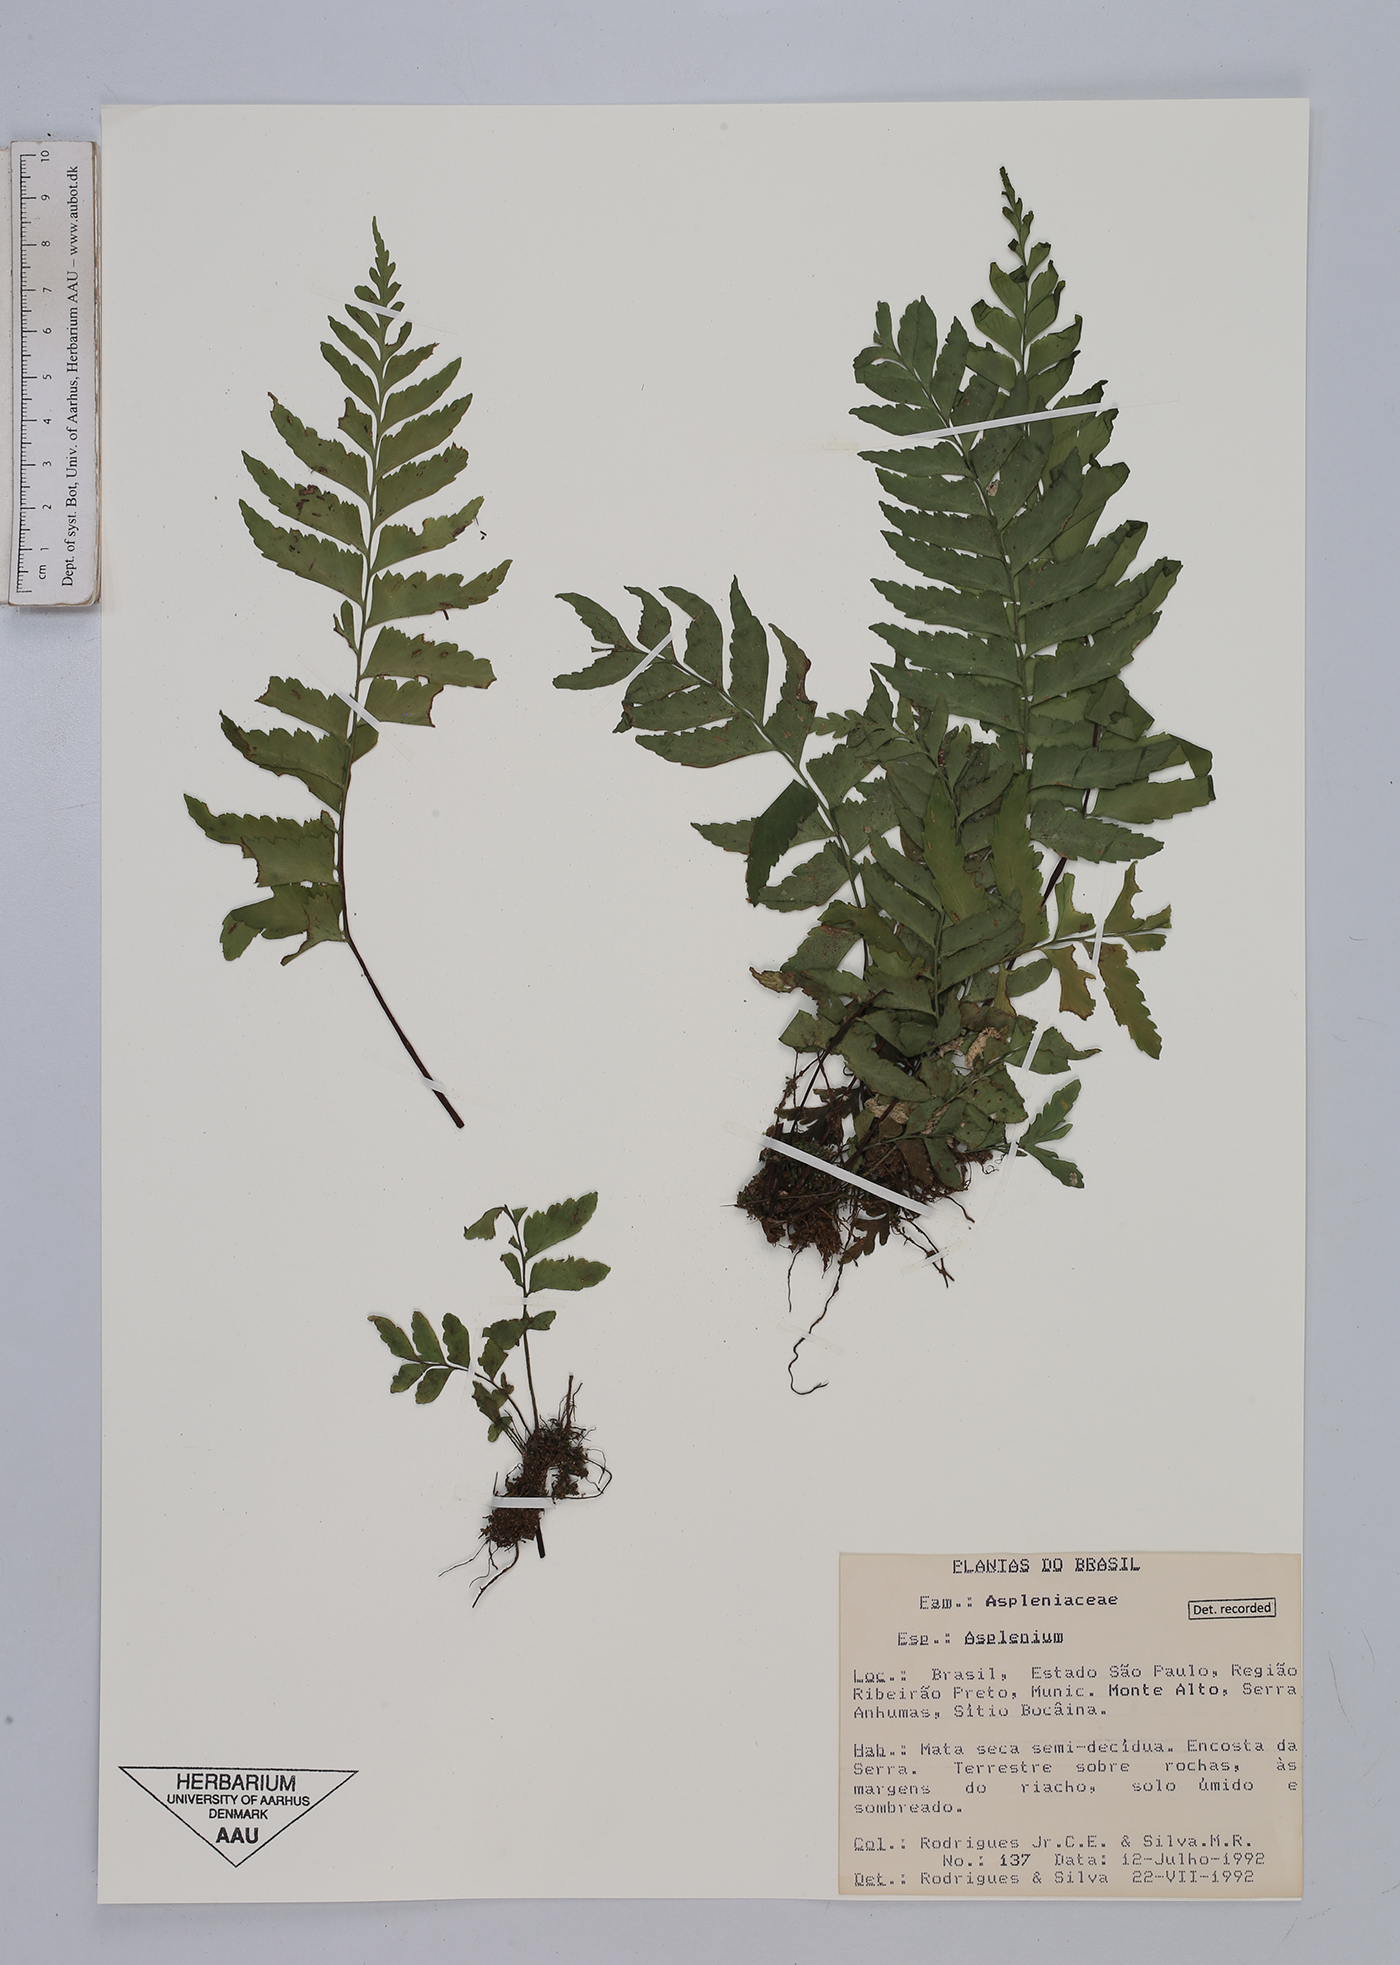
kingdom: Plantae
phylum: Tracheophyta
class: Polypodiopsida
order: Polypodiales
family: Aspleniaceae
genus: Asplenium
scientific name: Asplenium
